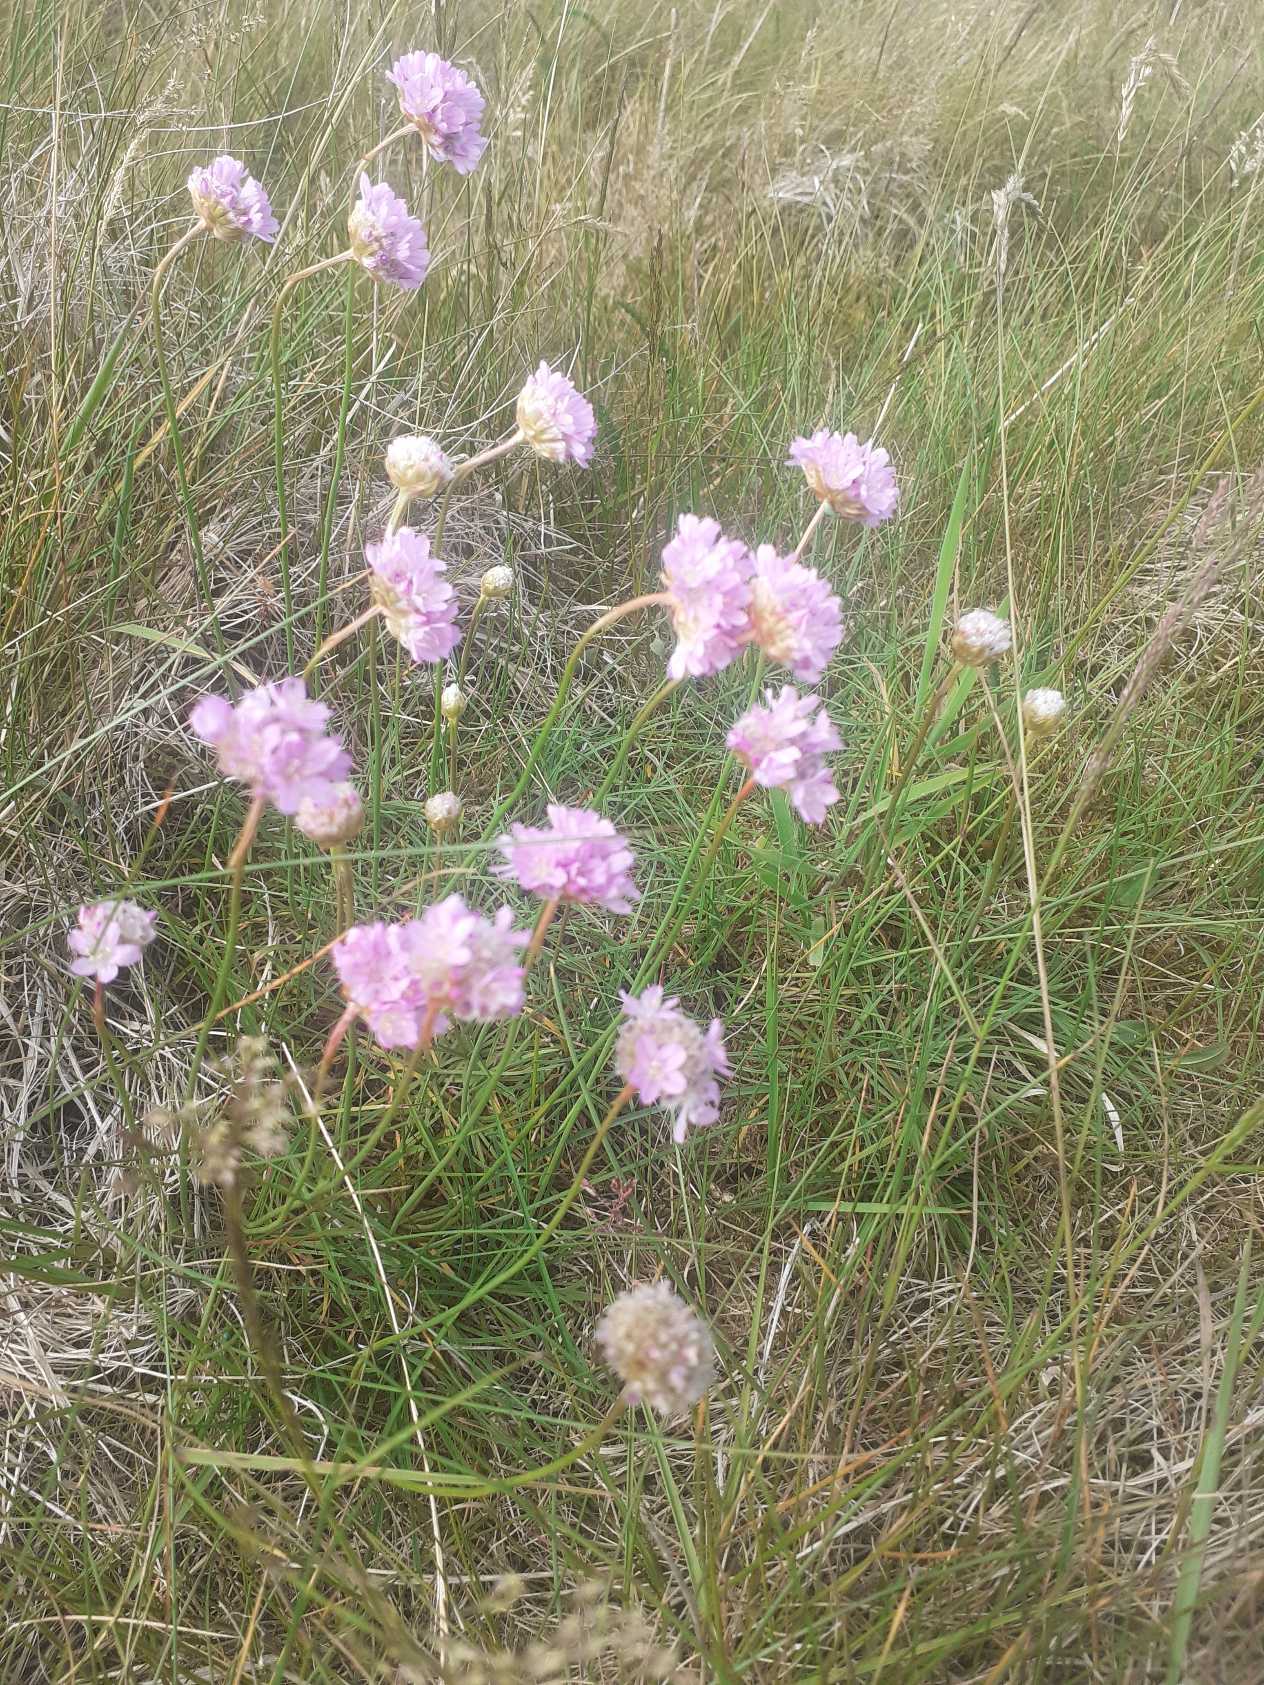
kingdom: Plantae
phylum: Tracheophyta
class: Magnoliopsida
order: Caryophyllales
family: Plumbaginaceae
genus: Armeria
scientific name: Armeria maritima
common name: Engelskgræs
